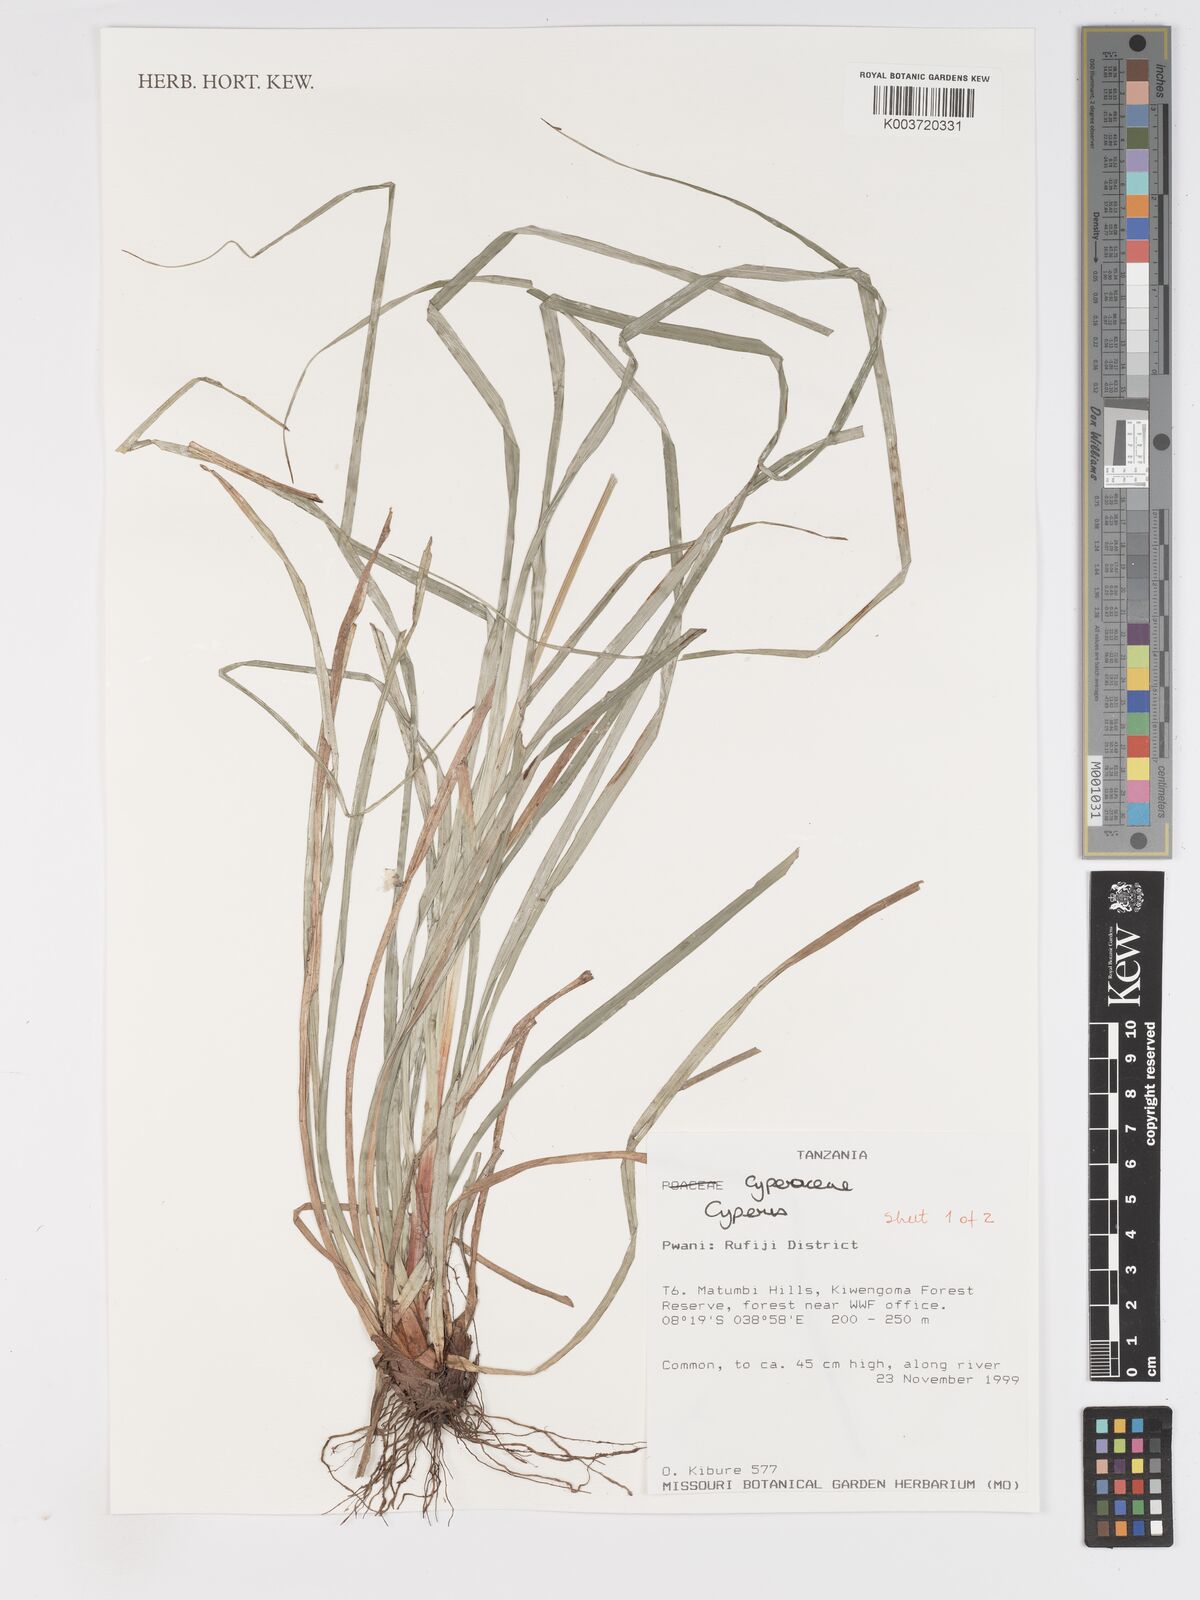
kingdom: Plantae
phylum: Tracheophyta
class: Liliopsida
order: Poales
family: Cyperaceae
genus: Cyperus
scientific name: Cyperus
